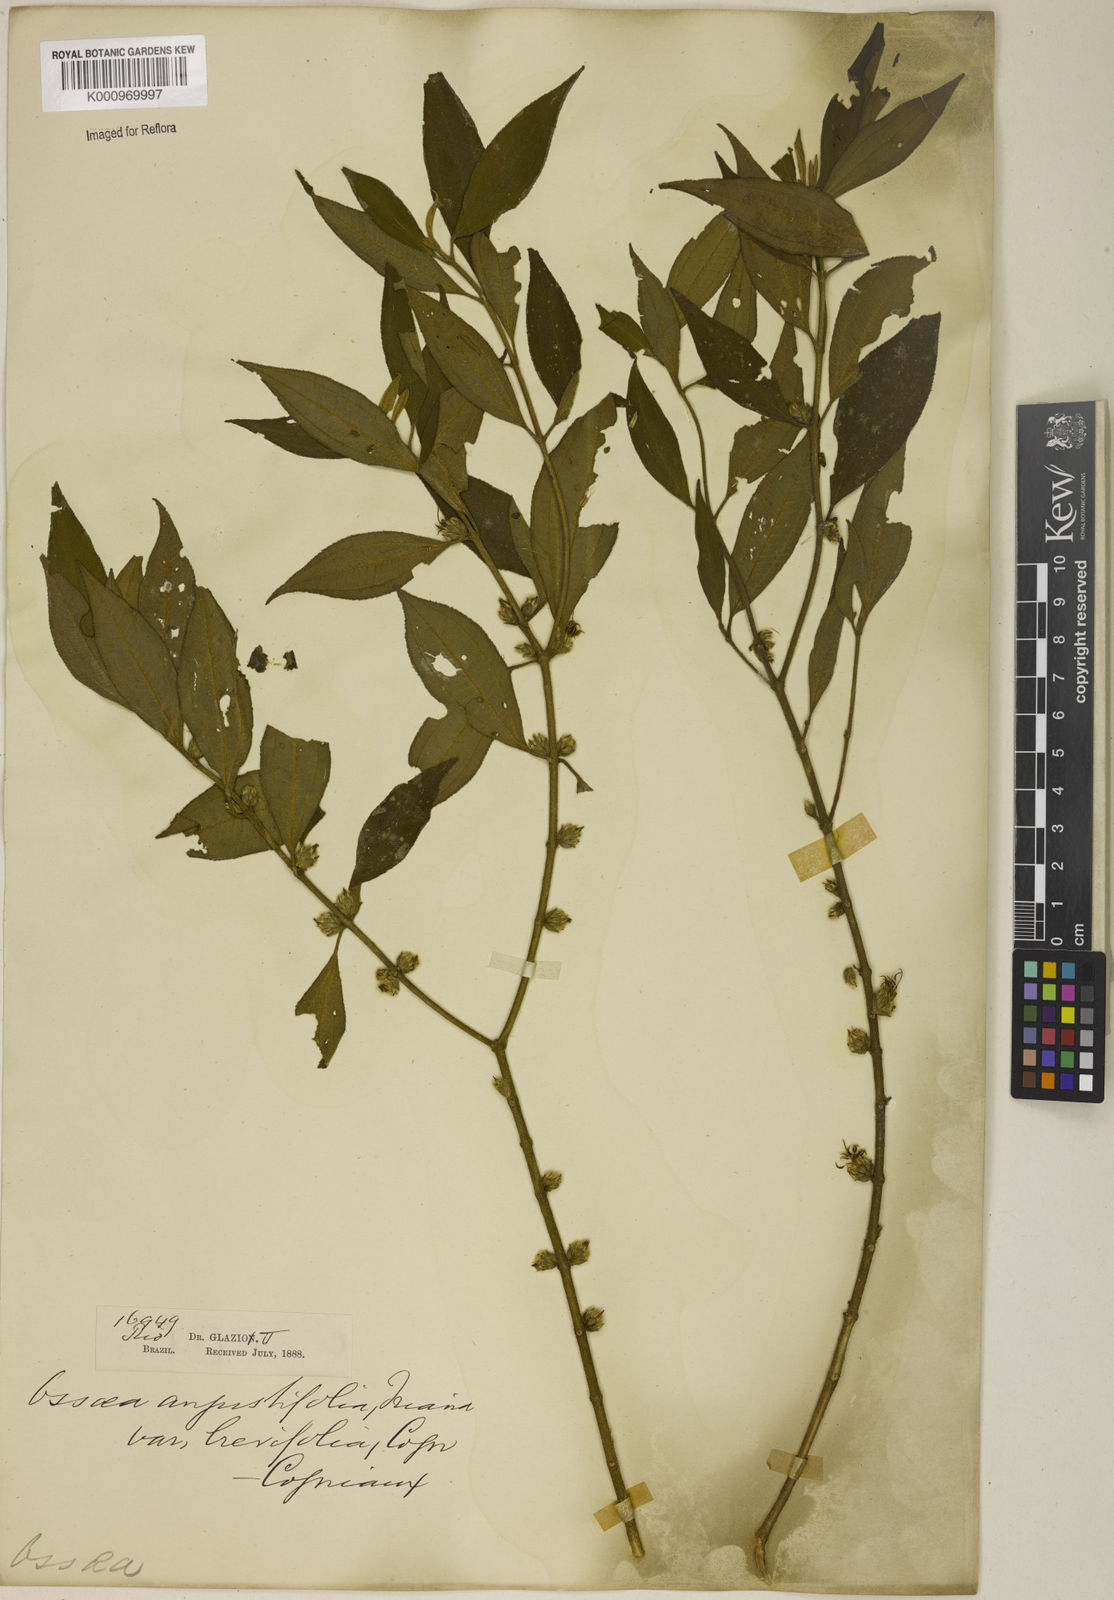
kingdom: Plantae
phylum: Tracheophyta
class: Magnoliopsida
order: Myrtales
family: Melastomataceae
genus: Miconia
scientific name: Miconia corcovadensis
